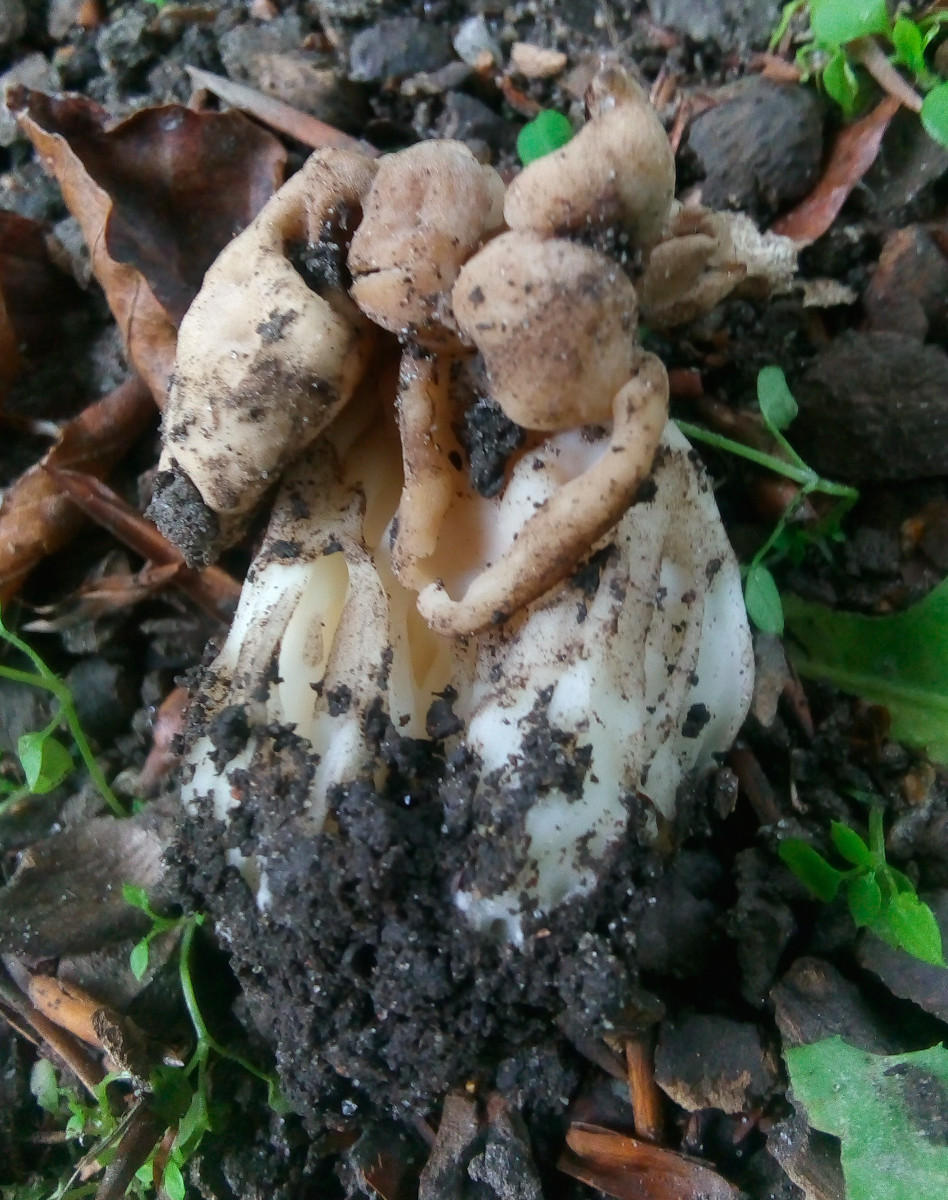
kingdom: Fungi
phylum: Ascomycota
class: Pezizomycetes
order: Pezizales
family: Helvellaceae
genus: Helvella
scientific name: Helvella crispa
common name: kruset foldhat
